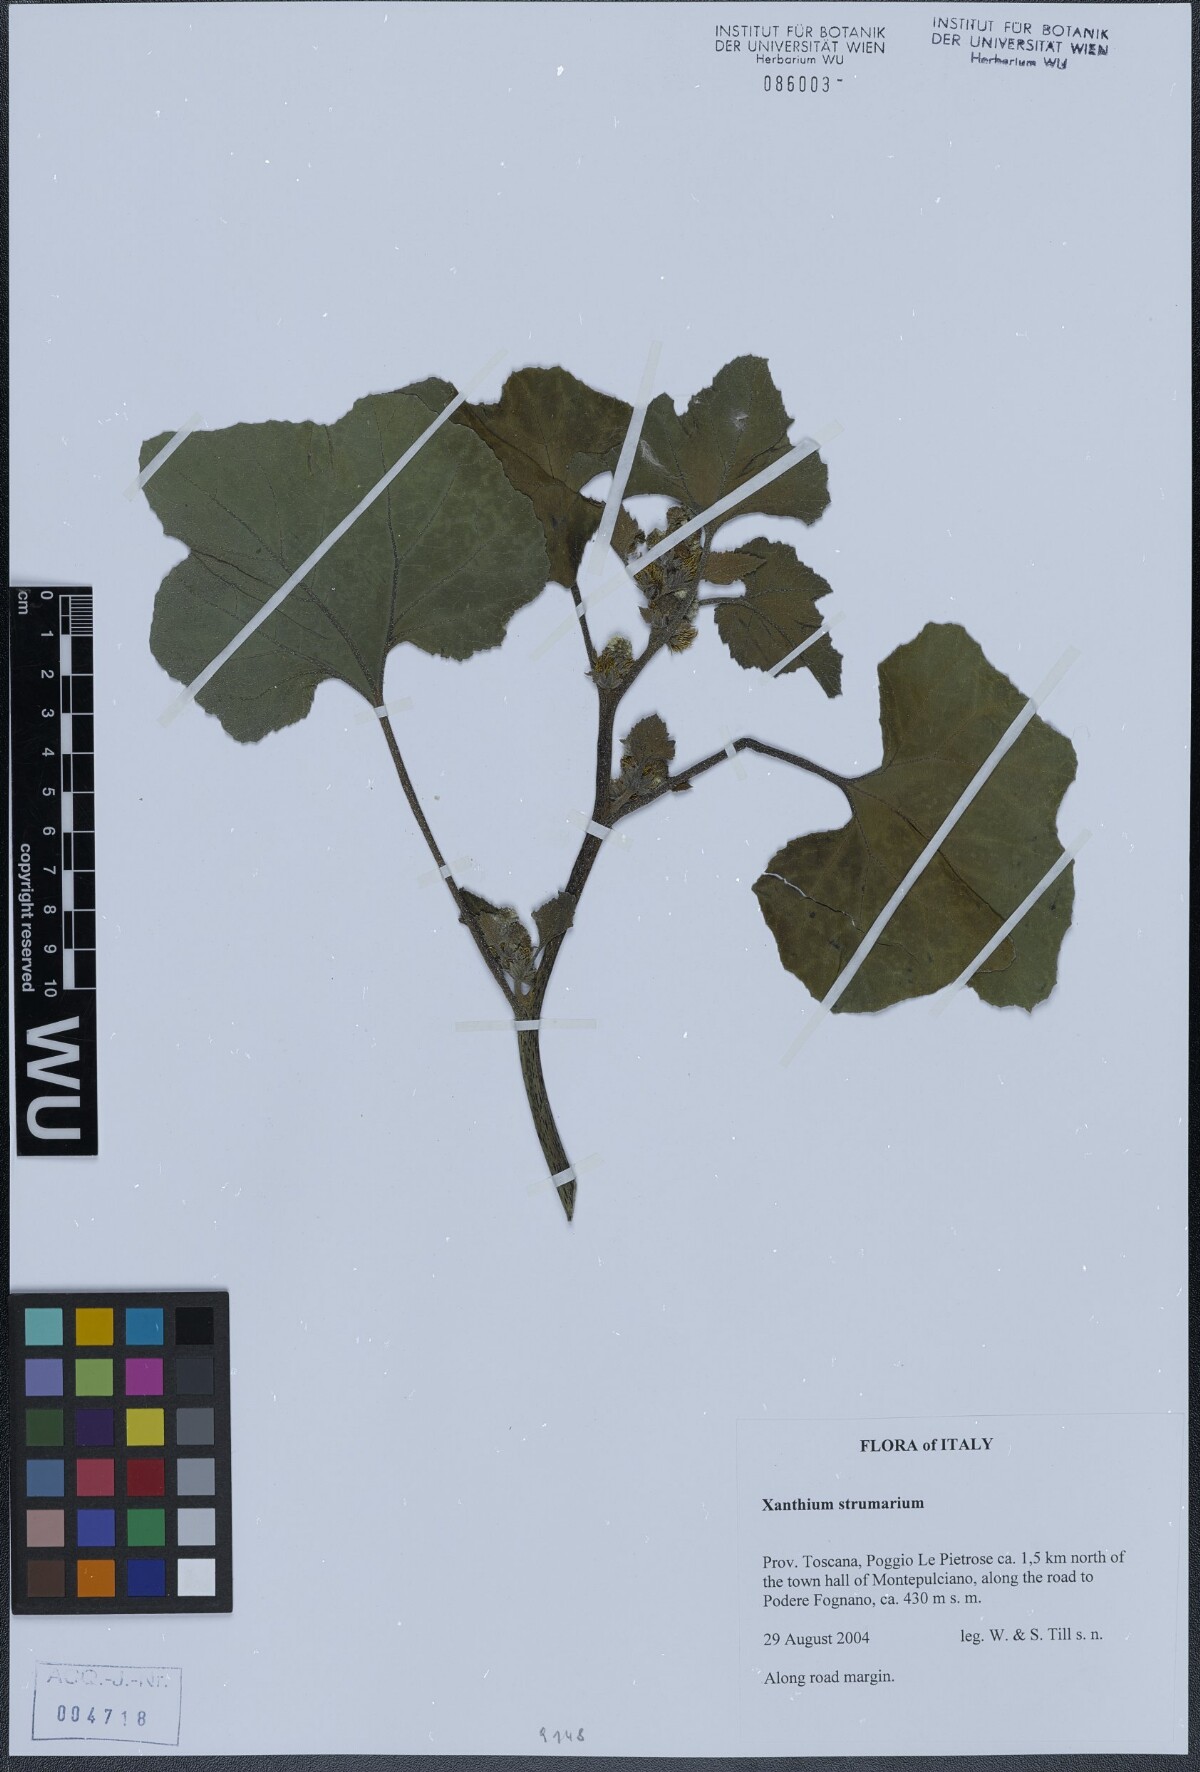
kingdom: Plantae
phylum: Tracheophyta
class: Magnoliopsida
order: Asterales
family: Asteraceae
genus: Xanthium
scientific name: Xanthium strumarium
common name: Rough cocklebur
